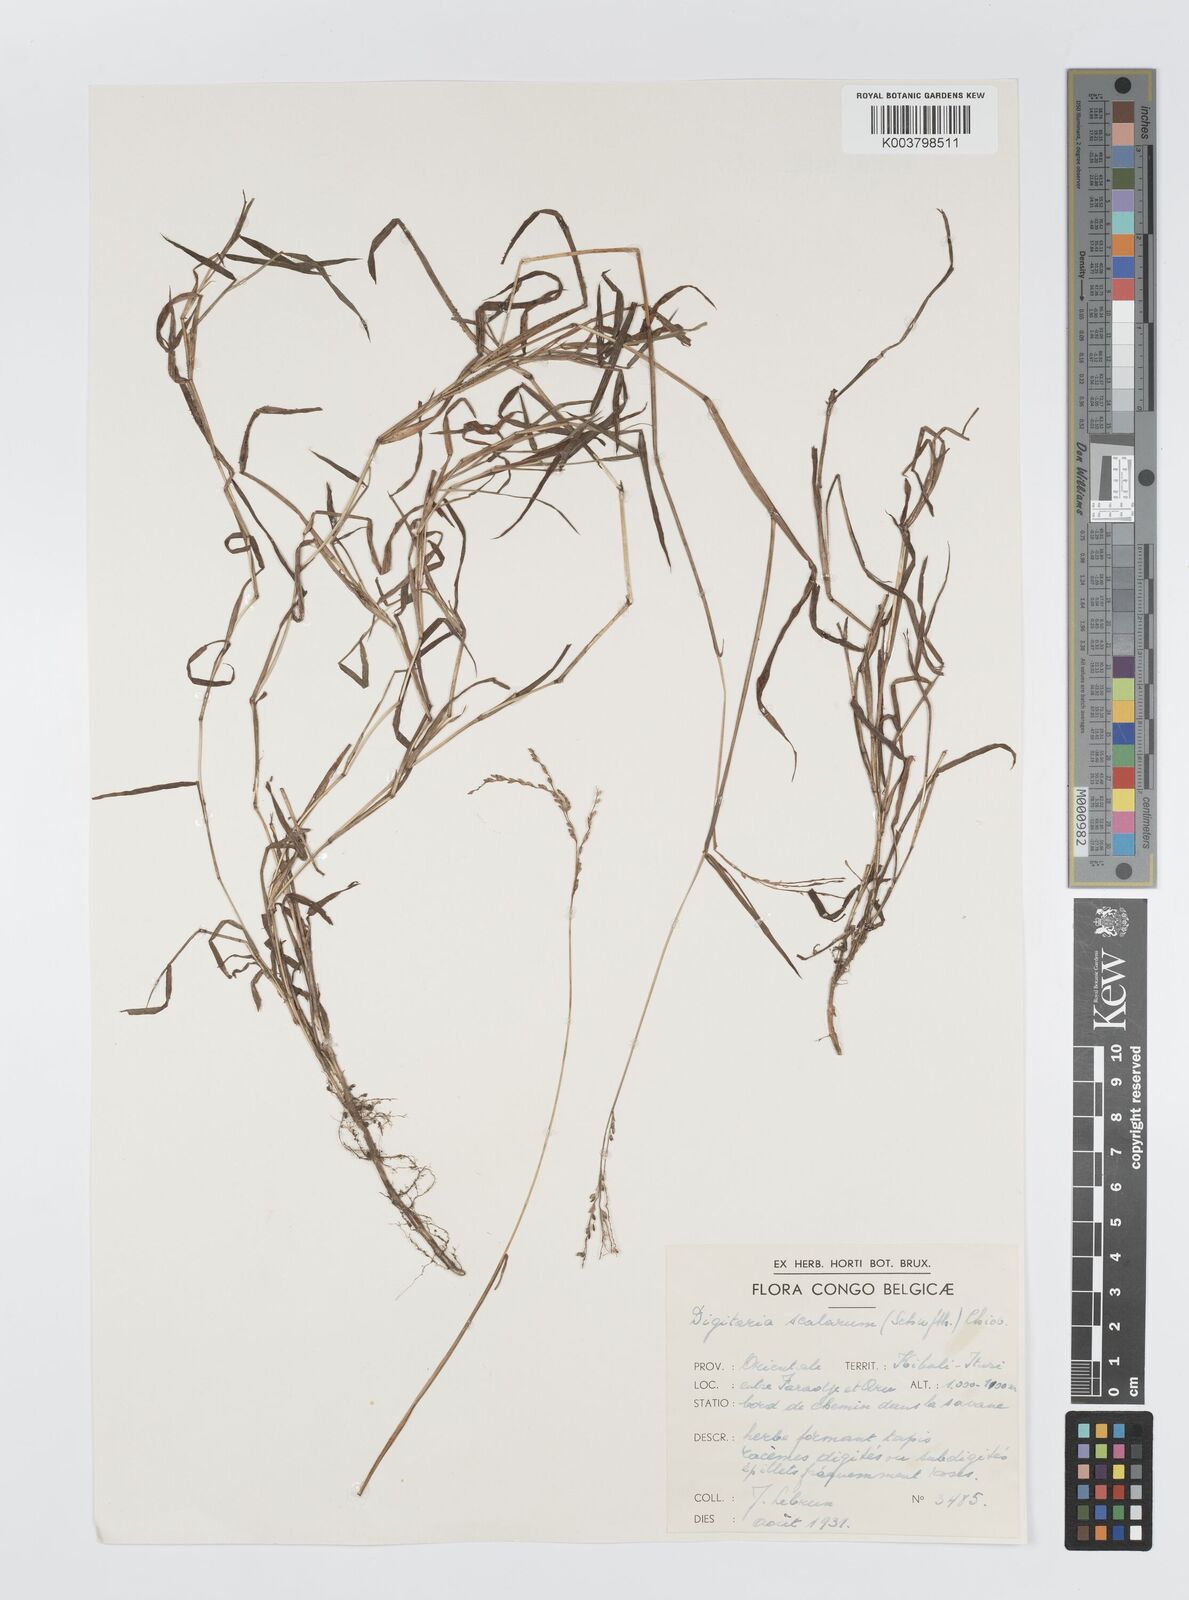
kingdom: Plantae
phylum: Tracheophyta
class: Liliopsida
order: Poales
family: Poaceae
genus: Digitaria
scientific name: Digitaria abyssinica
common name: African couchgrass
